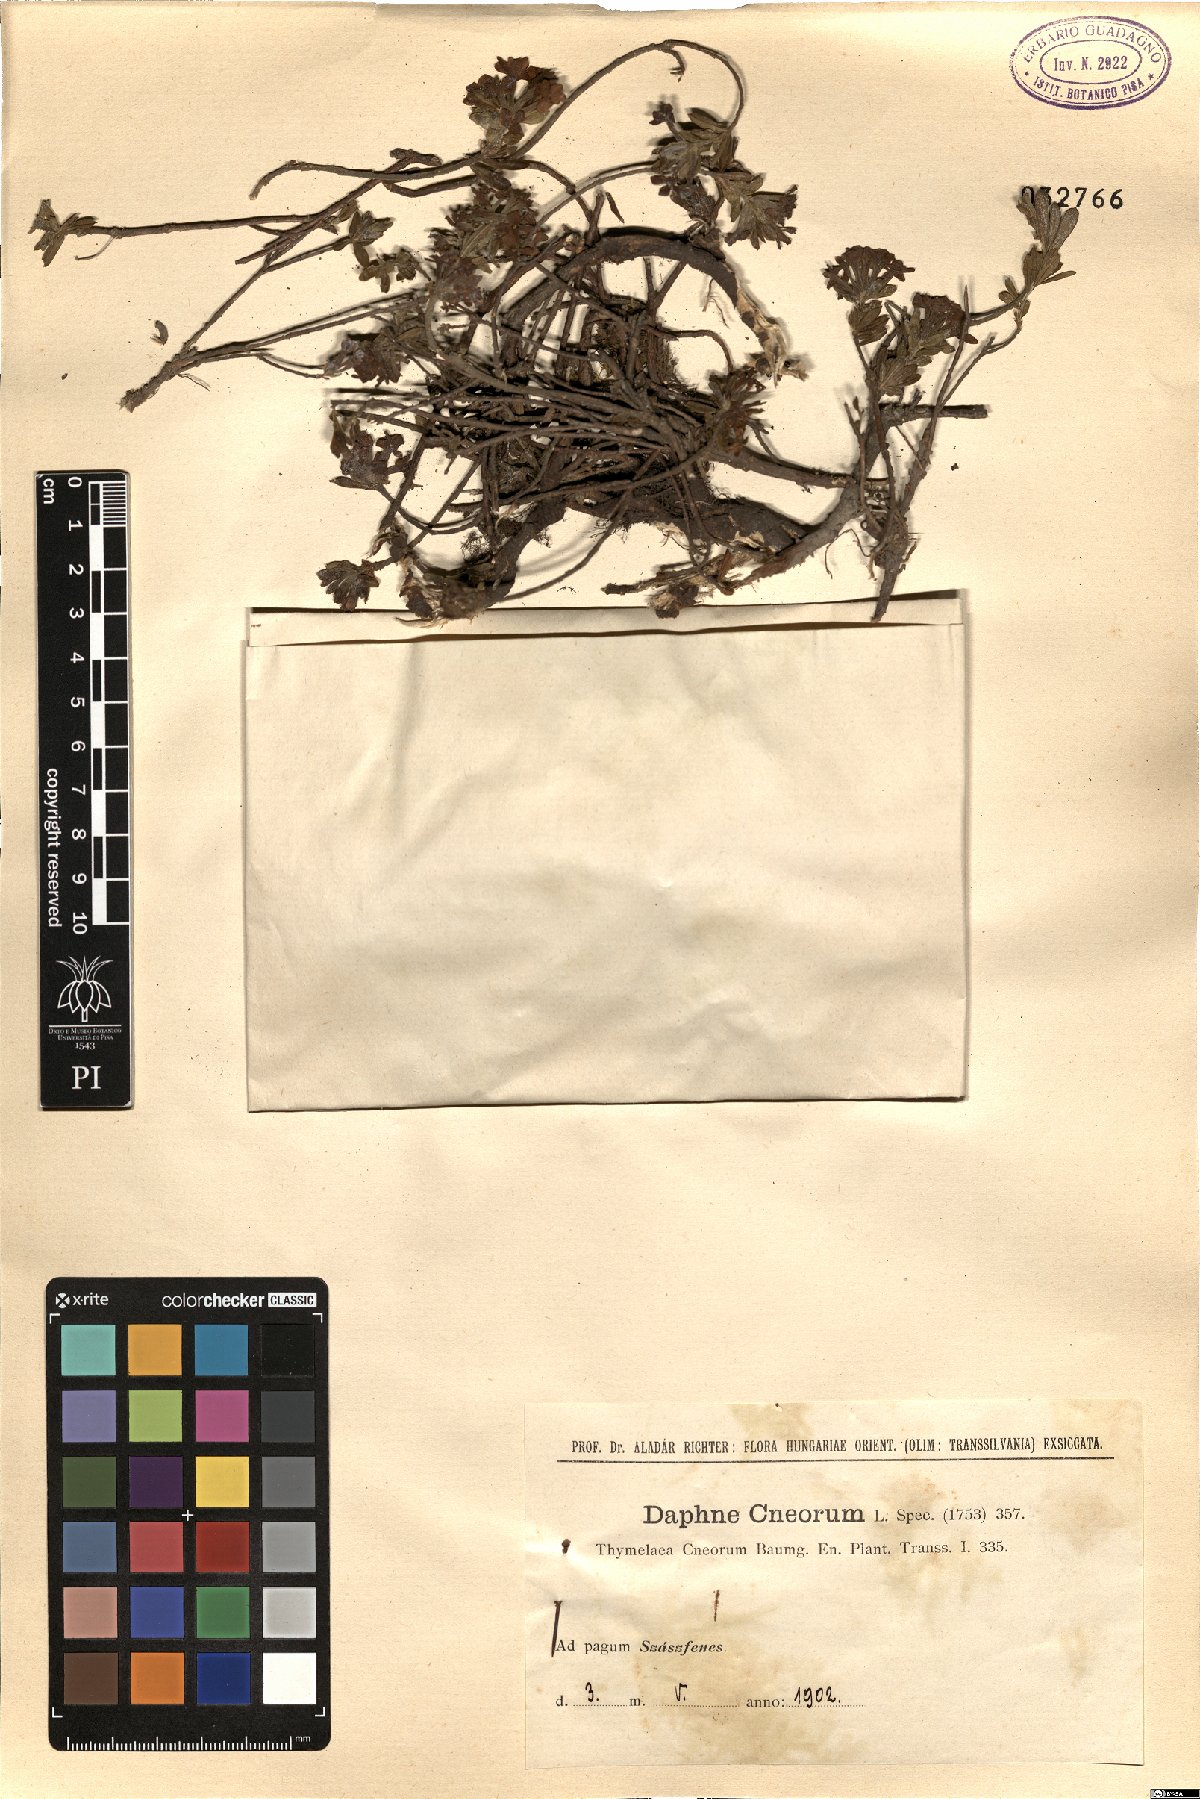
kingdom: Plantae
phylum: Tracheophyta
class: Magnoliopsida
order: Malvales
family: Thymelaeaceae
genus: Daphne
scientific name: Daphne cneorum
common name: Garland-flower
